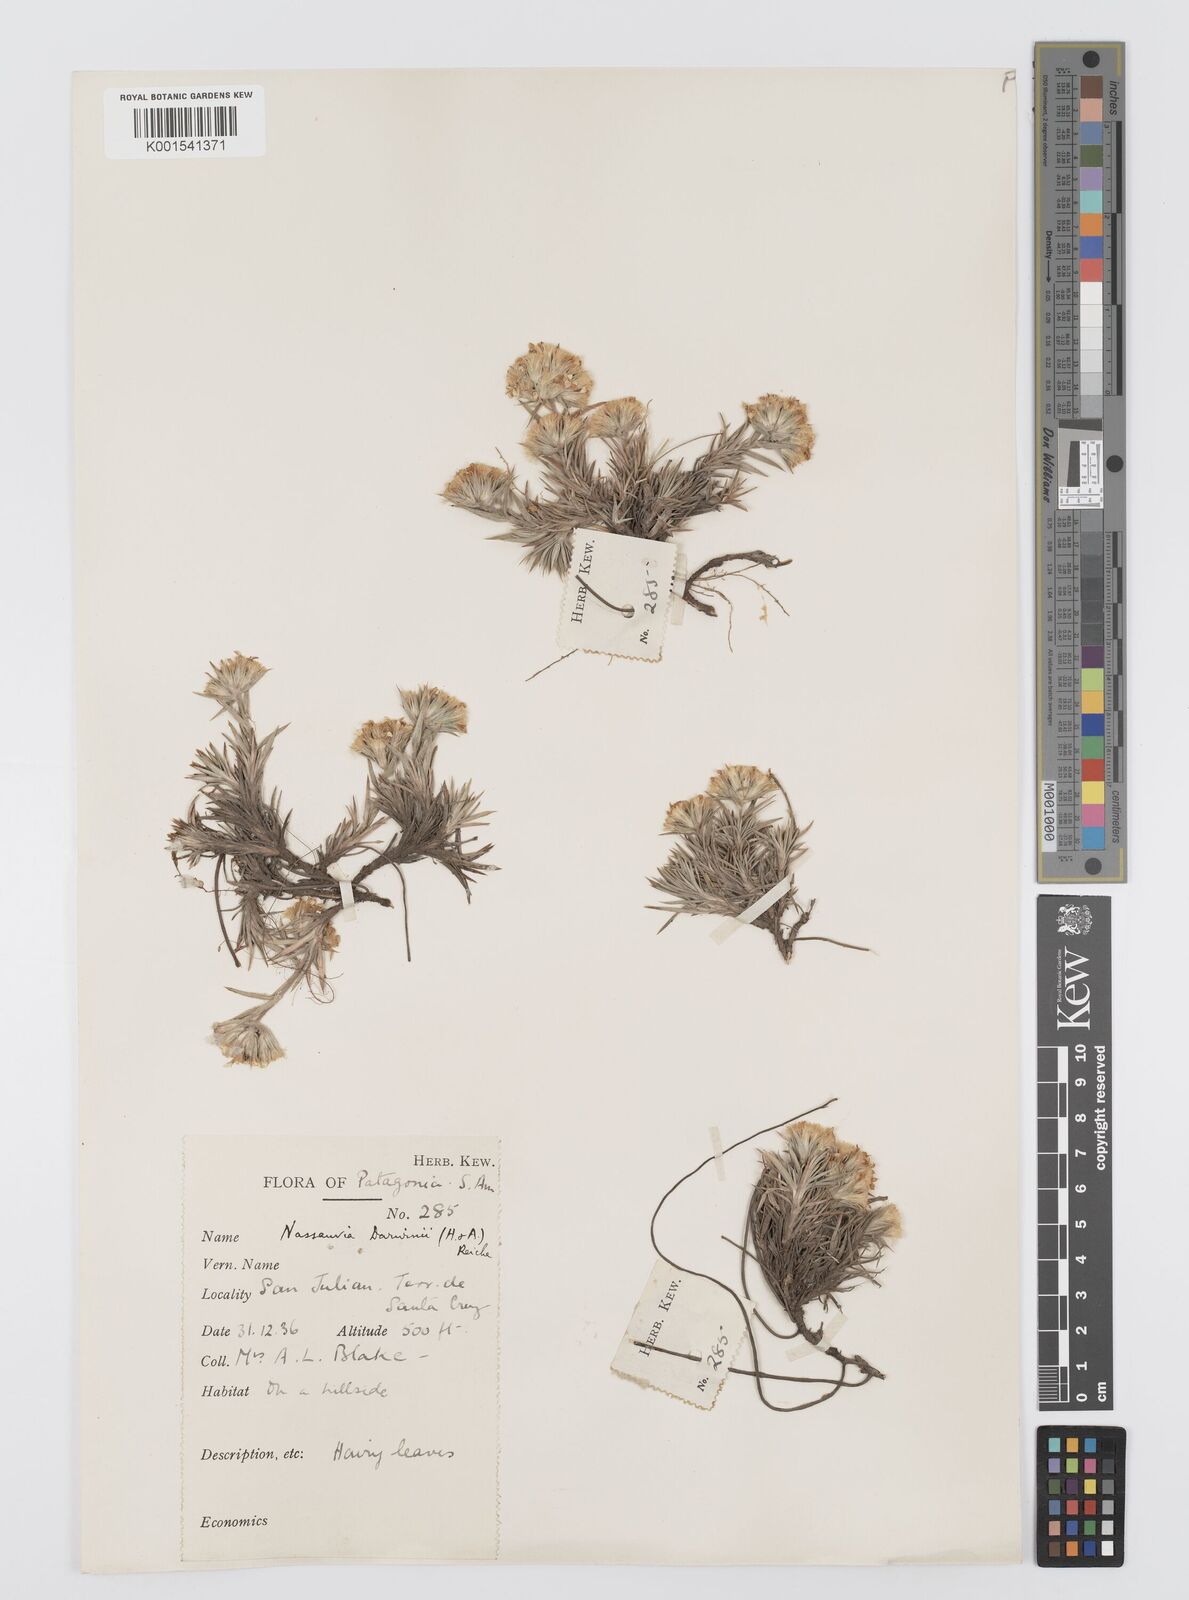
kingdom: Plantae
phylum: Tracheophyta
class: Magnoliopsida
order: Asterales
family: Asteraceae
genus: Nassauvia
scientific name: Nassauvia darwinii
